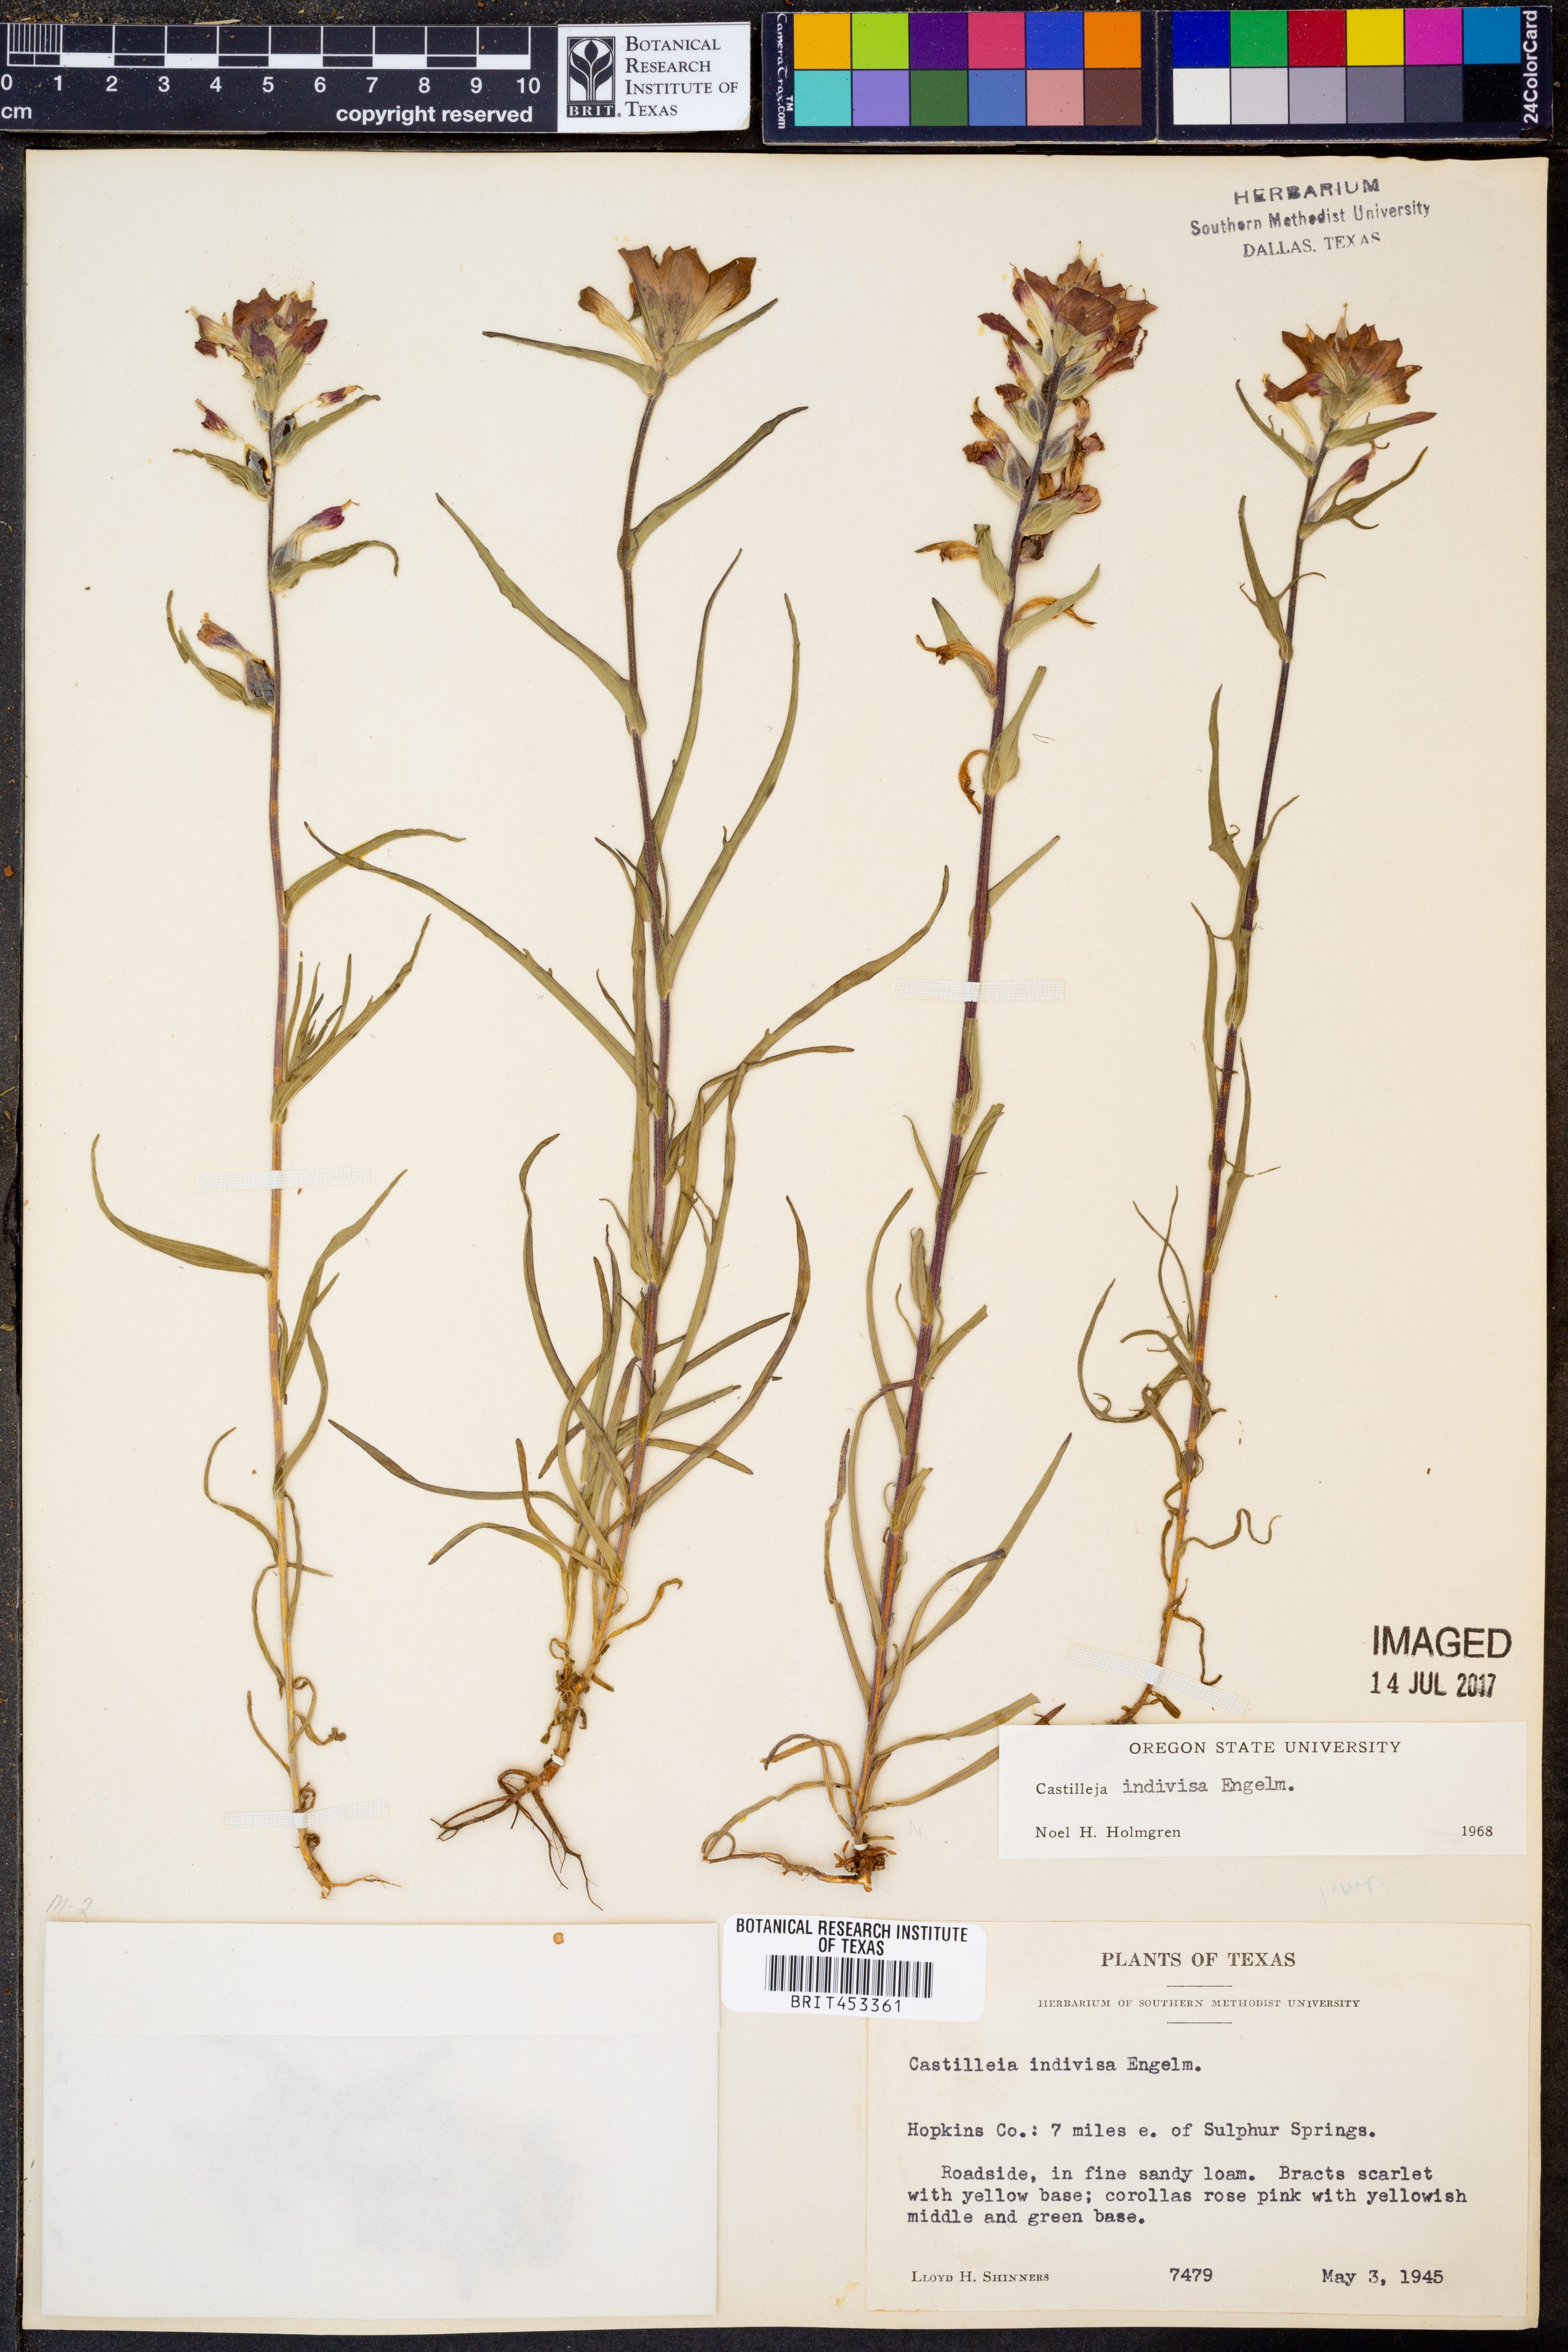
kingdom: Plantae
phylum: Tracheophyta
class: Magnoliopsida
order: Lamiales
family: Orobanchaceae
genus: Castilleja
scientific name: Castilleja indivisa
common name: Texas paintbrush
